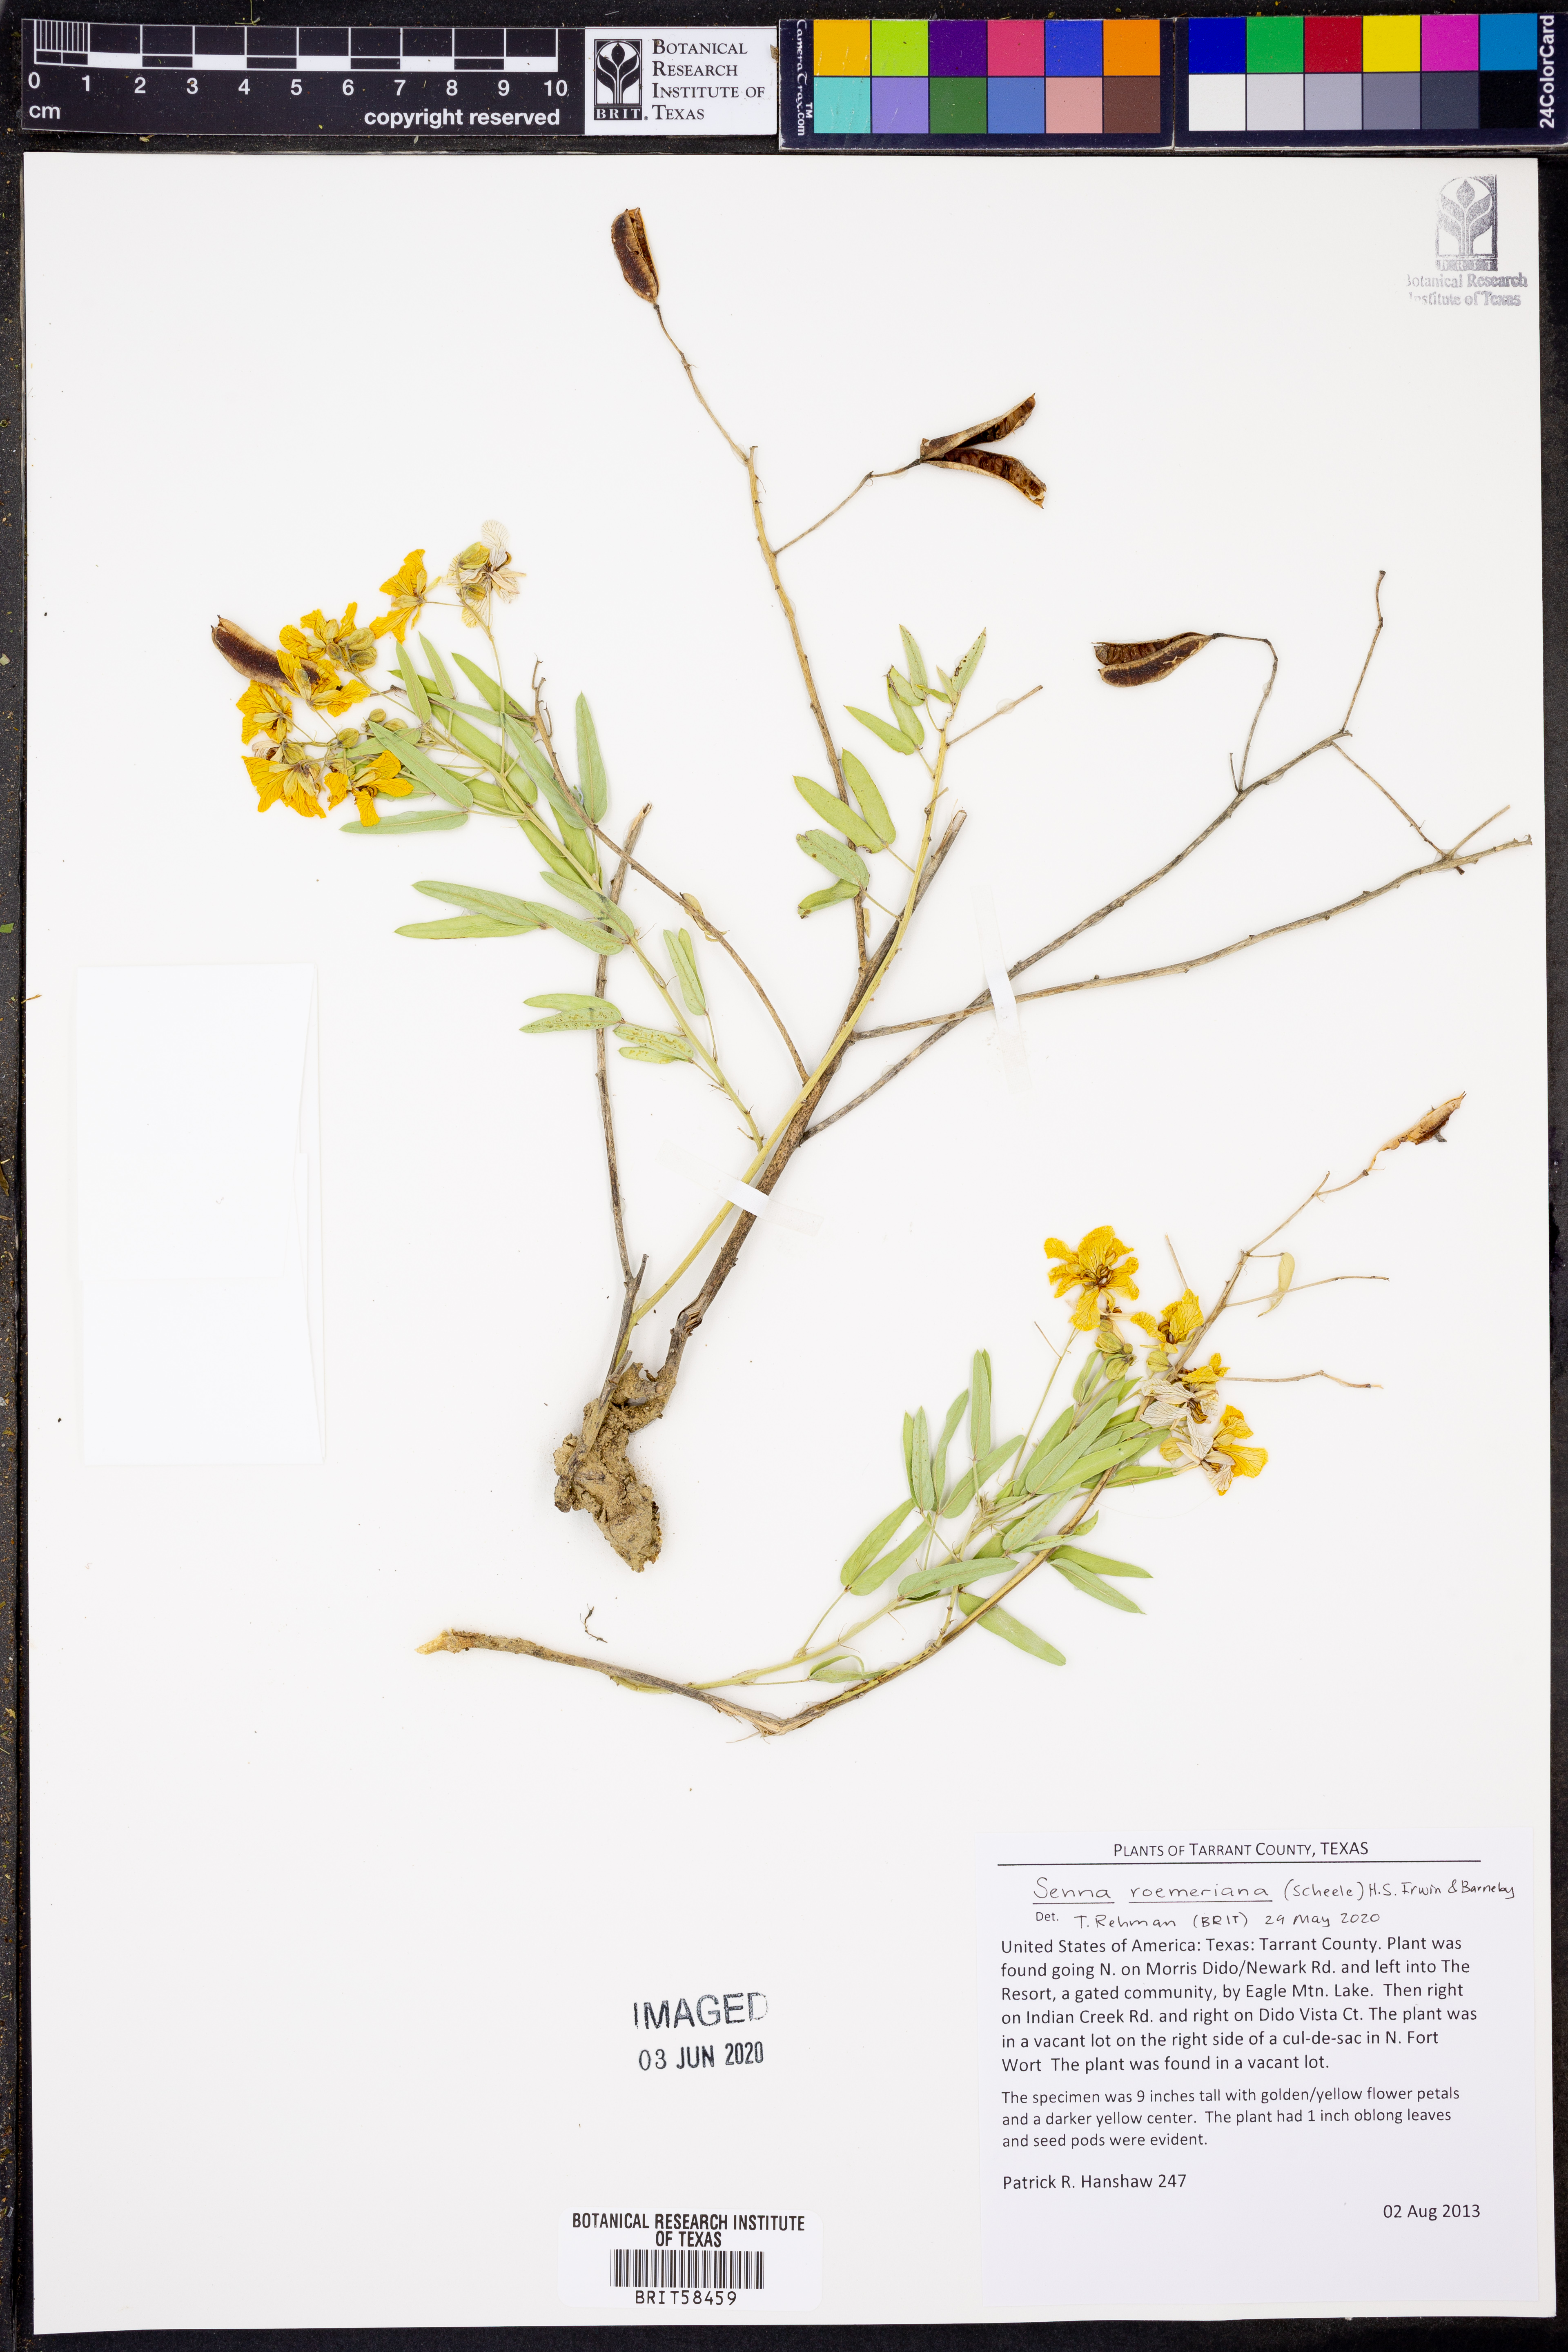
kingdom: Plantae
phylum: Tracheophyta
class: Magnoliopsida
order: Fabales
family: Fabaceae
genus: Senna
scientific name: Senna roemeriana
